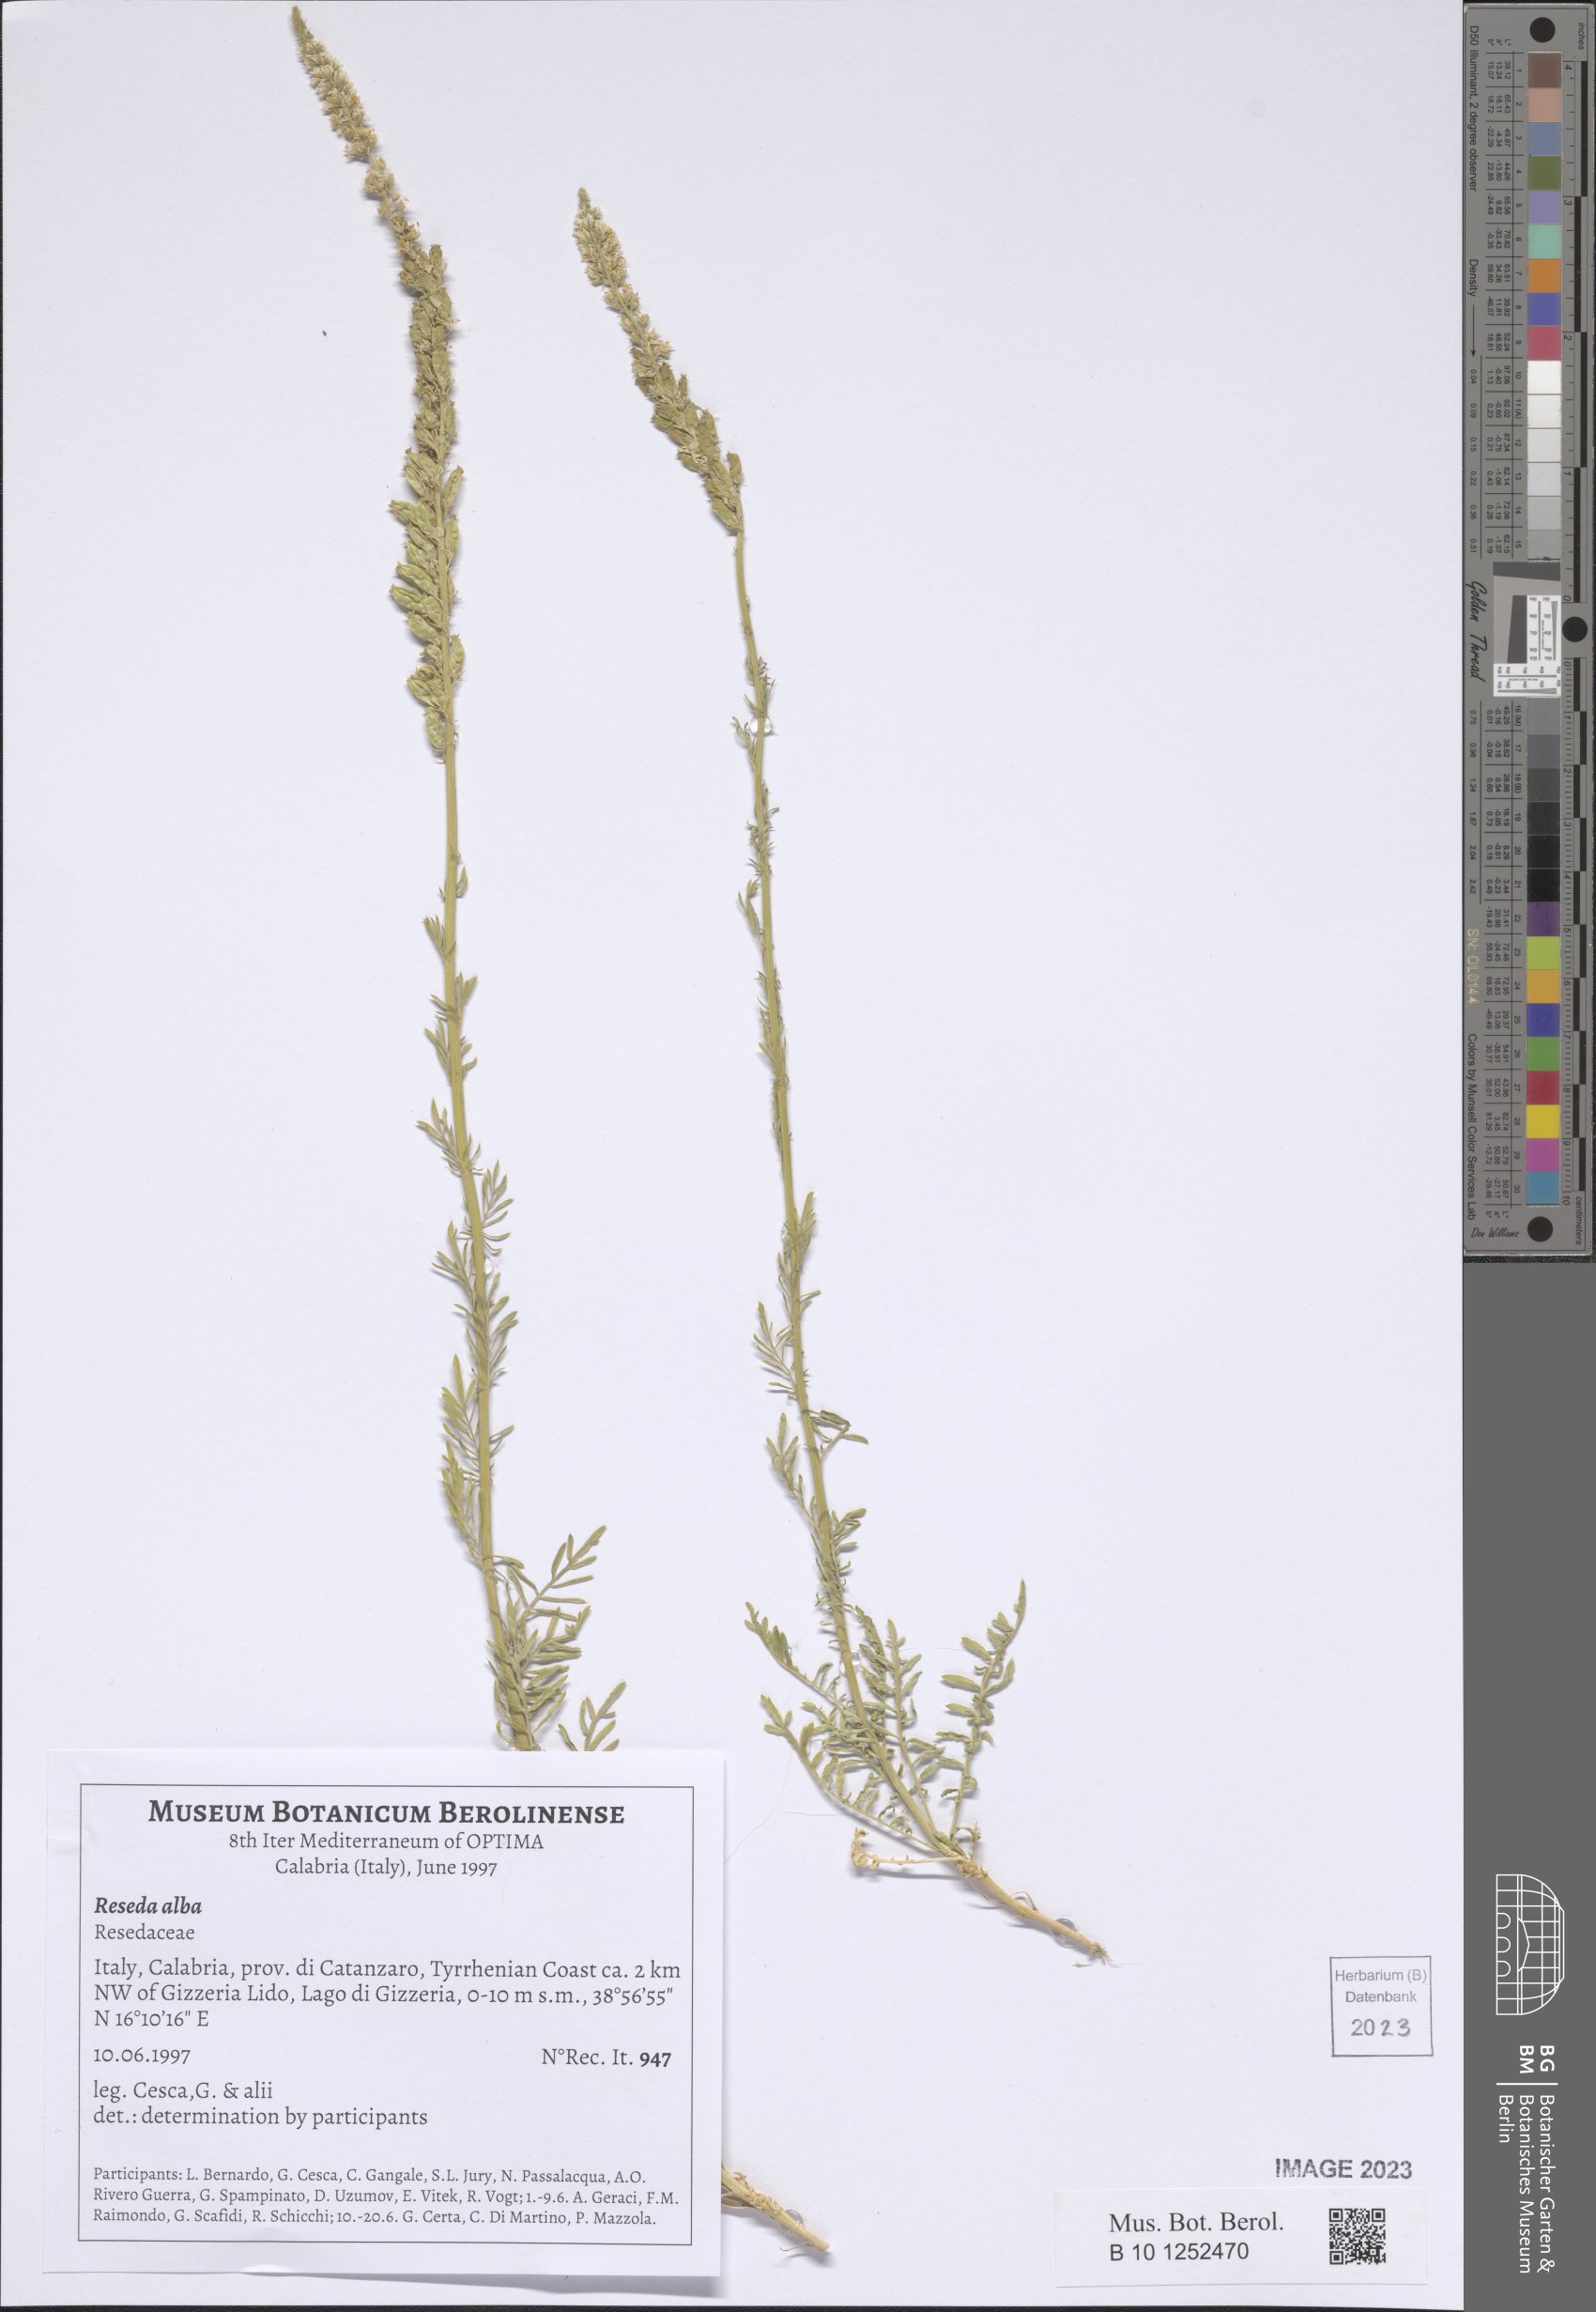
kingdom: Plantae
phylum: Tracheophyta
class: Magnoliopsida
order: Brassicales
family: Resedaceae
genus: Reseda
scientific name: Reseda alba
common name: White mignonette
